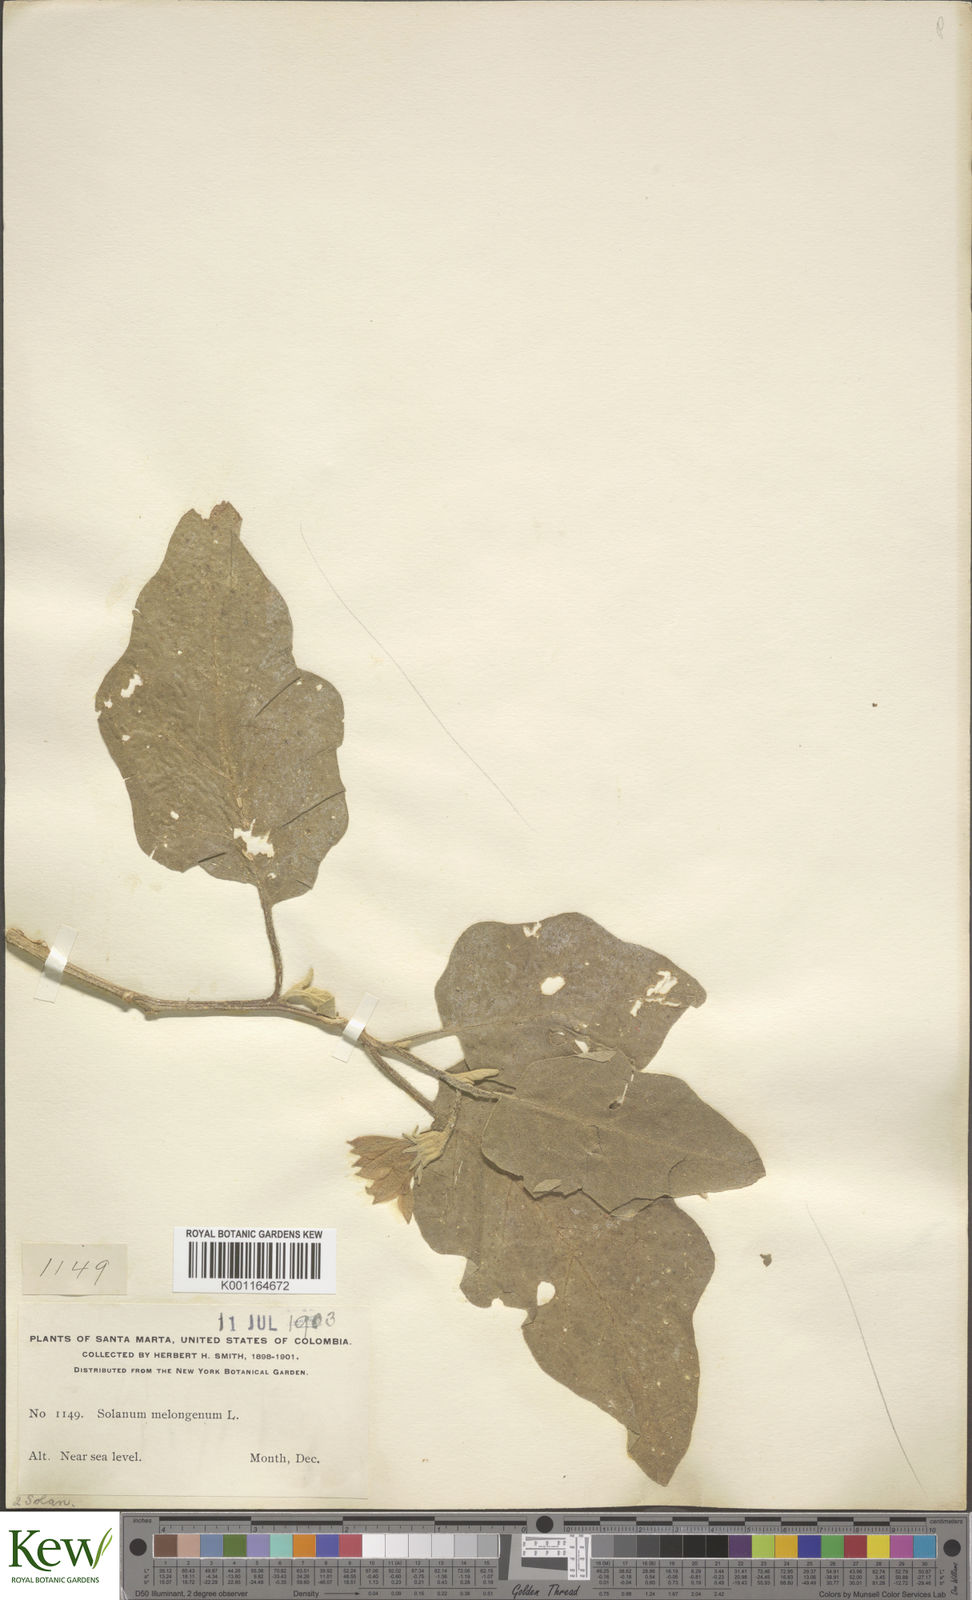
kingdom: Plantae
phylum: Tracheophyta
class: Magnoliopsida
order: Solanales
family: Solanaceae
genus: Solanum
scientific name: Solanum melongena
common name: Eggplant
